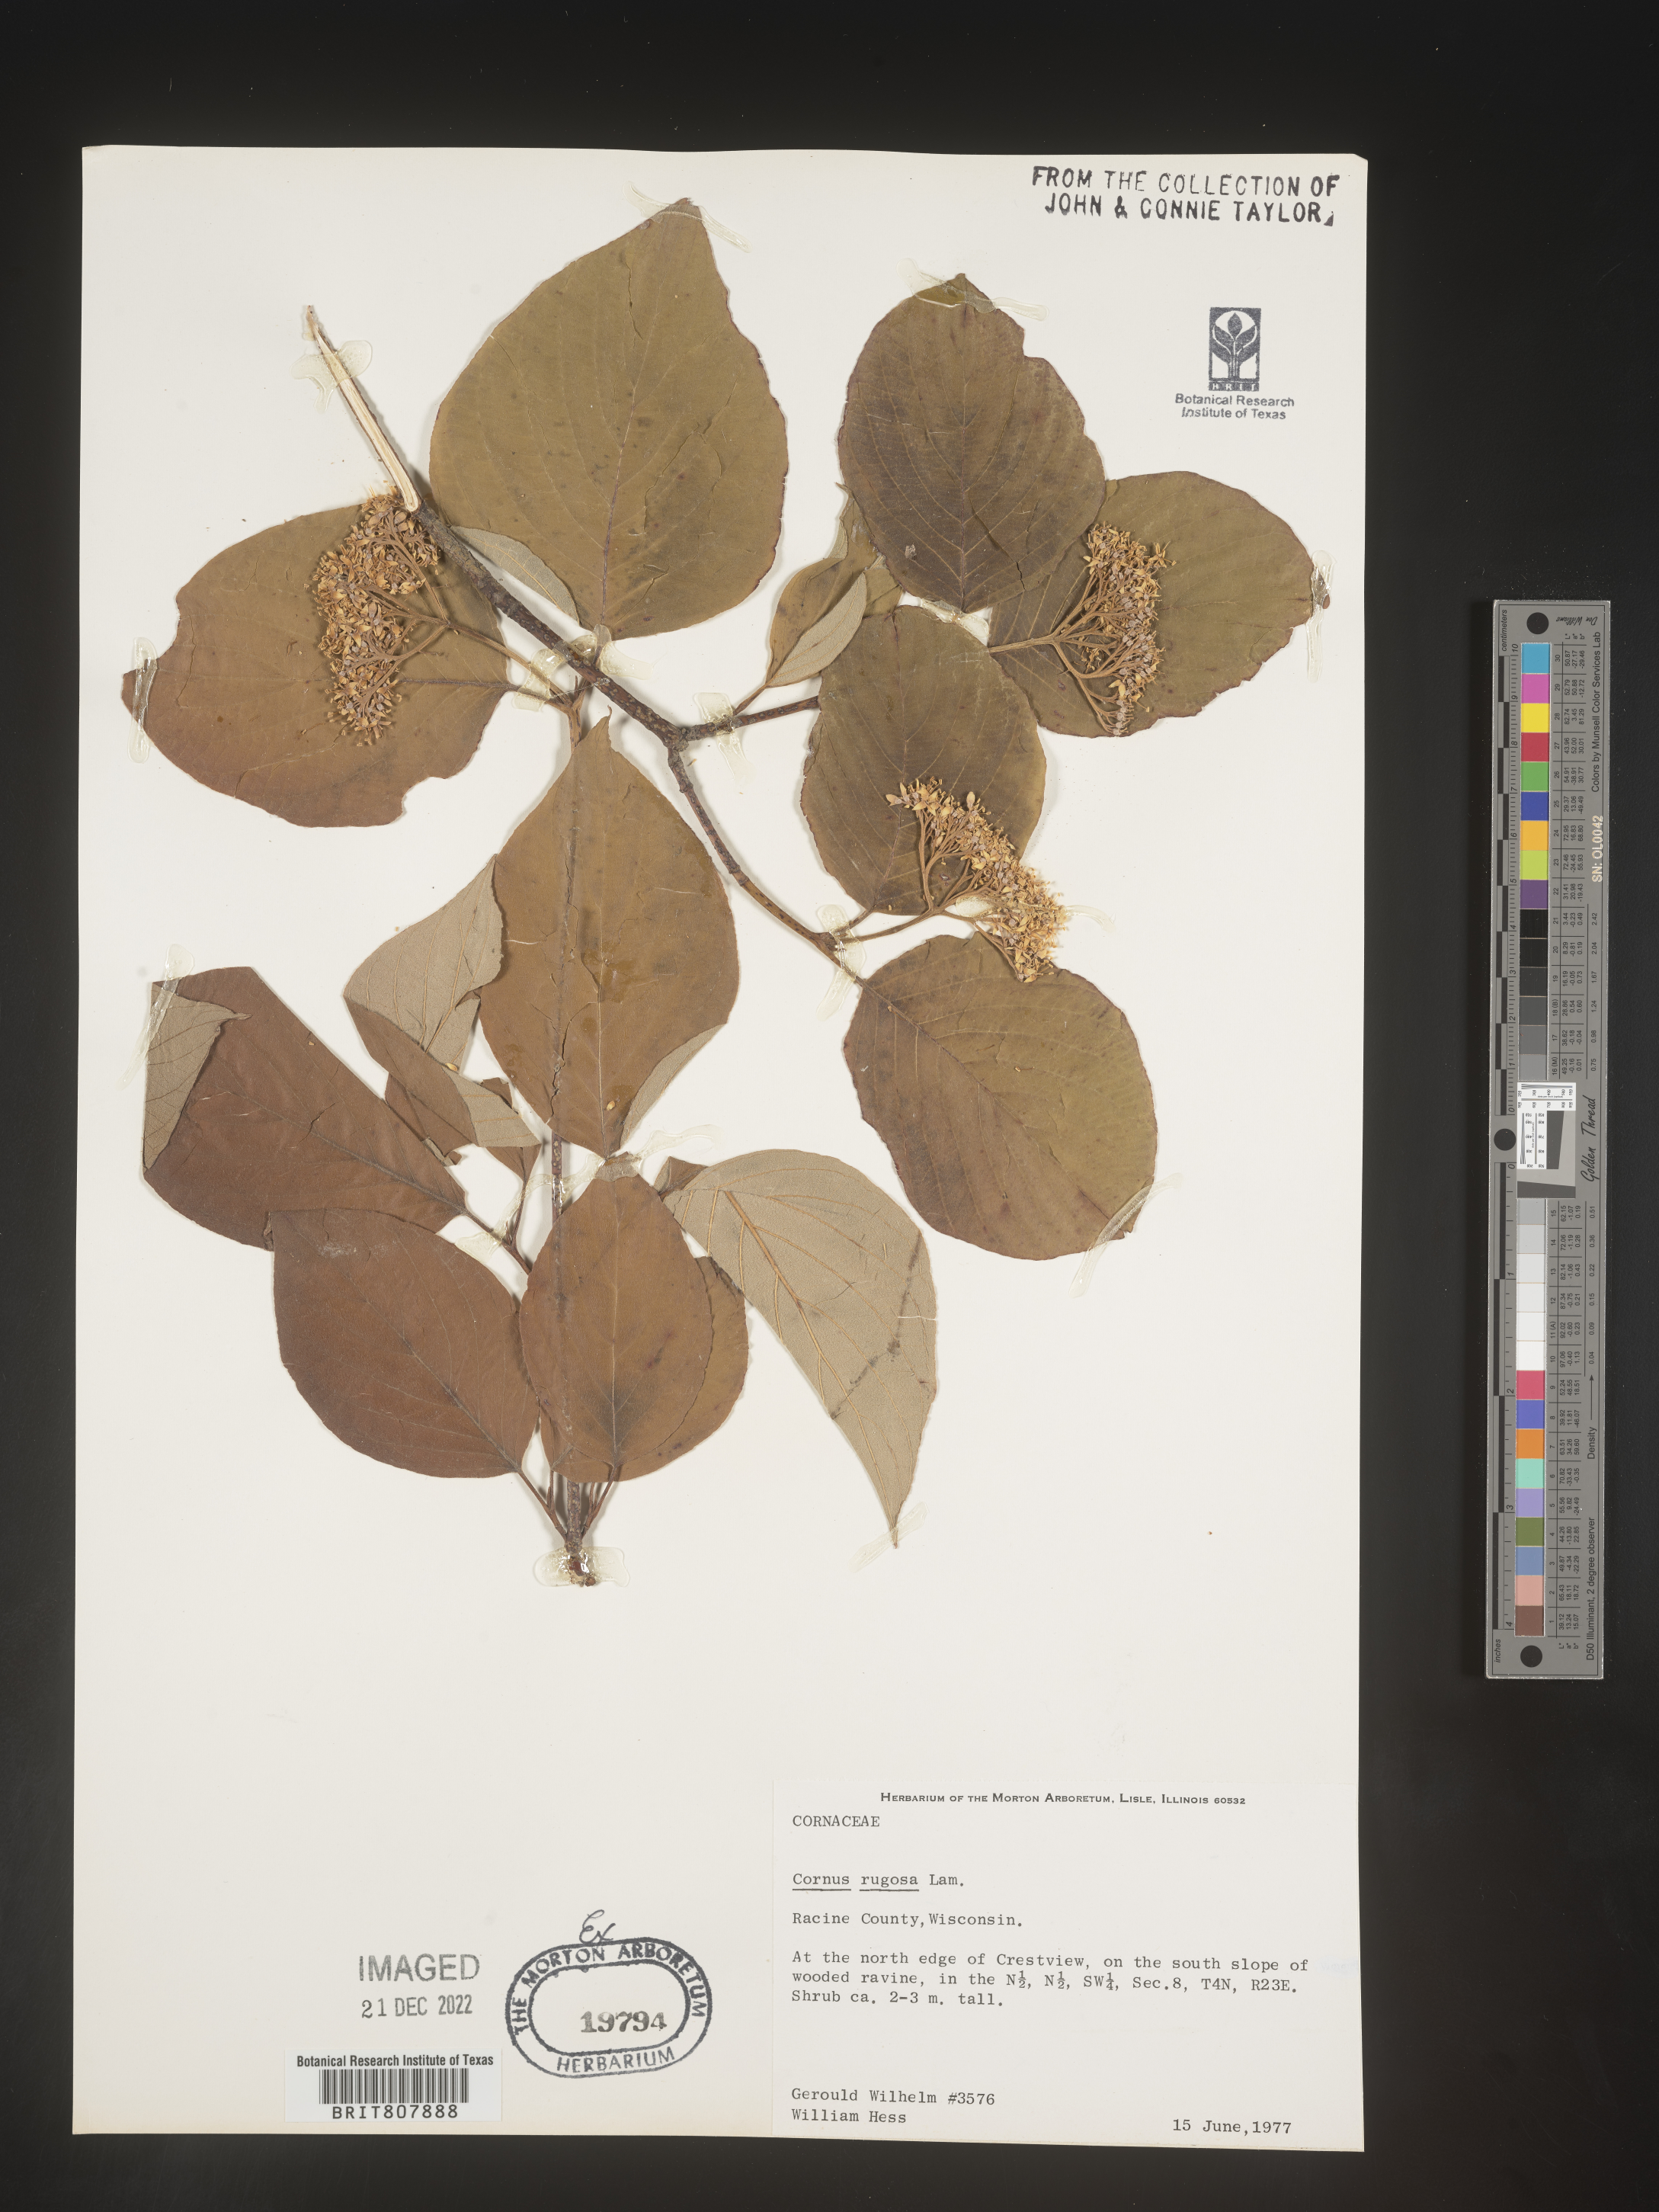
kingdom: Plantae
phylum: Tracheophyta
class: Magnoliopsida
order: Cornales
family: Cornaceae
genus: Cornus
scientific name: Cornus rugosa
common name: Round-leaf dogwood
